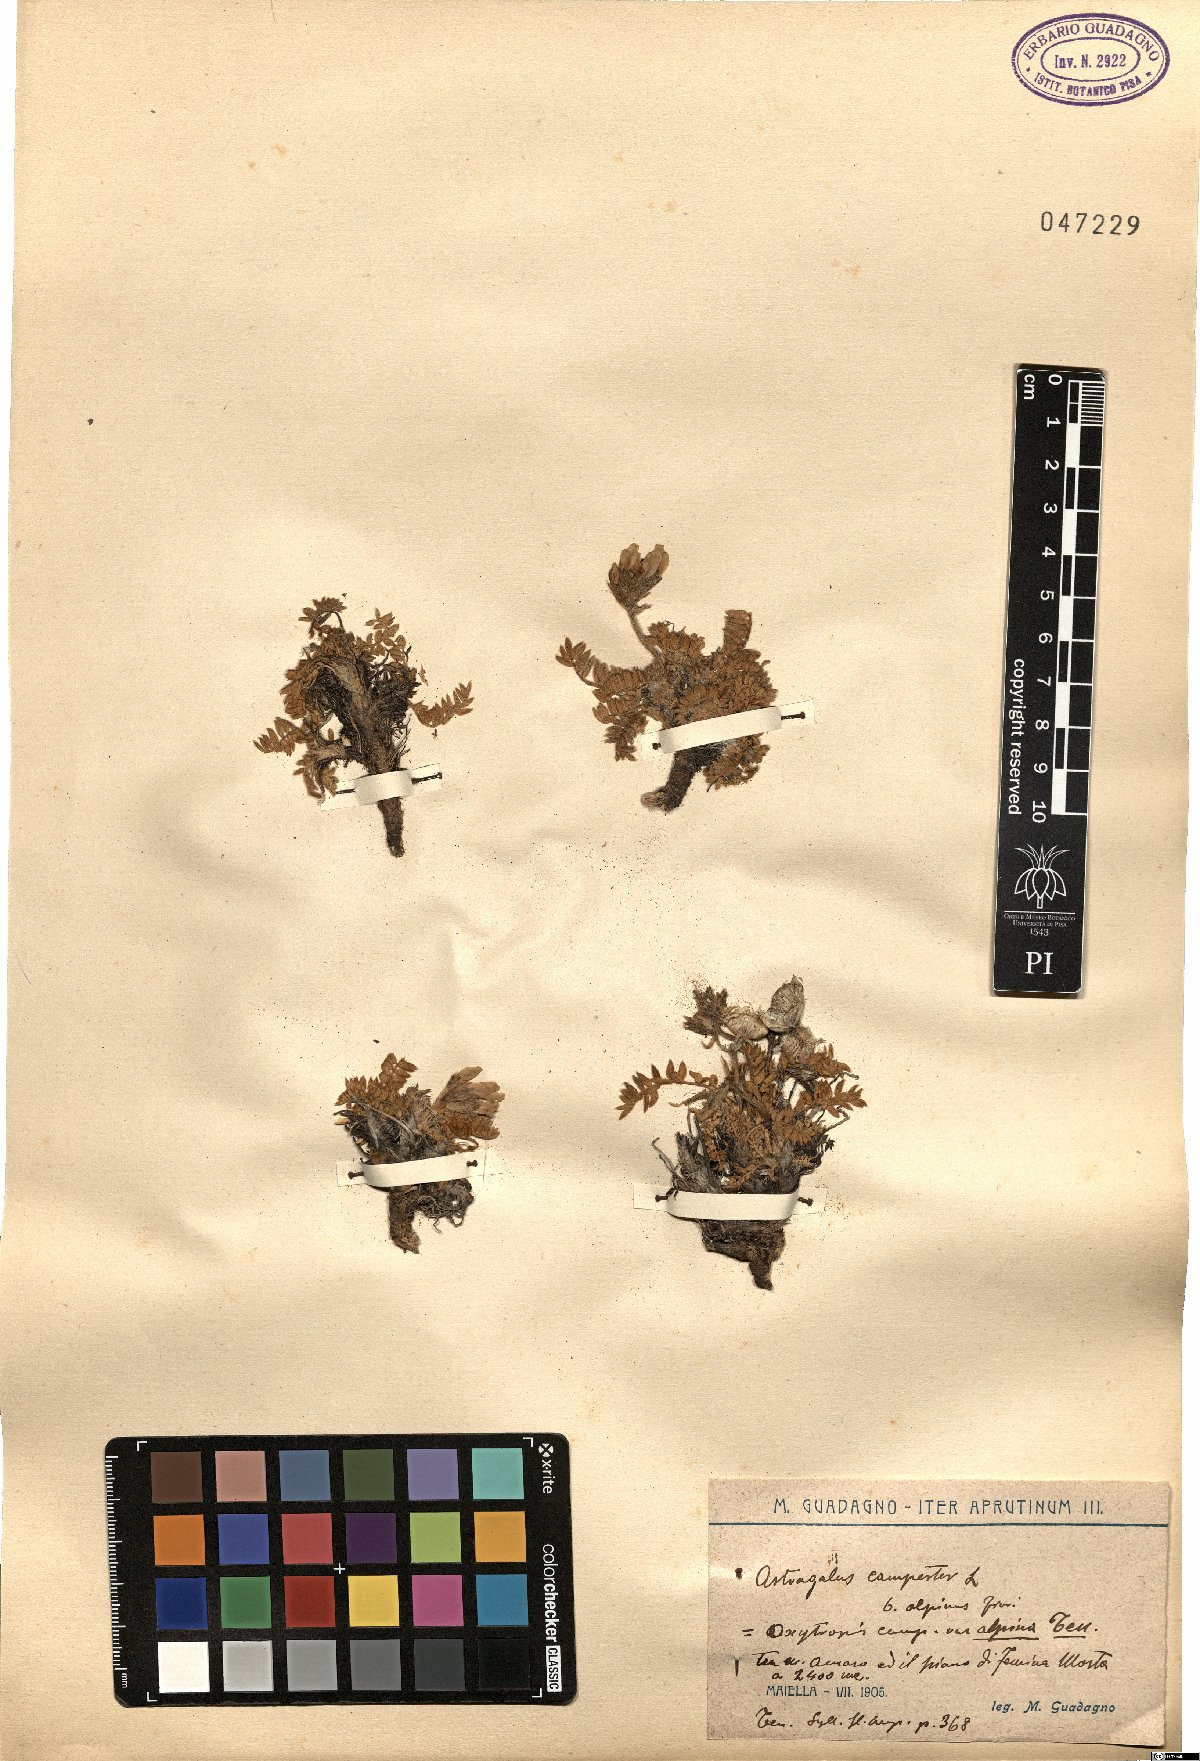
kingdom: Plantae
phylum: Tracheophyta
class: Magnoliopsida
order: Fabales
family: Fabaceae
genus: Oxytropis
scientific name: Oxytropis campestris
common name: Field locoweed
